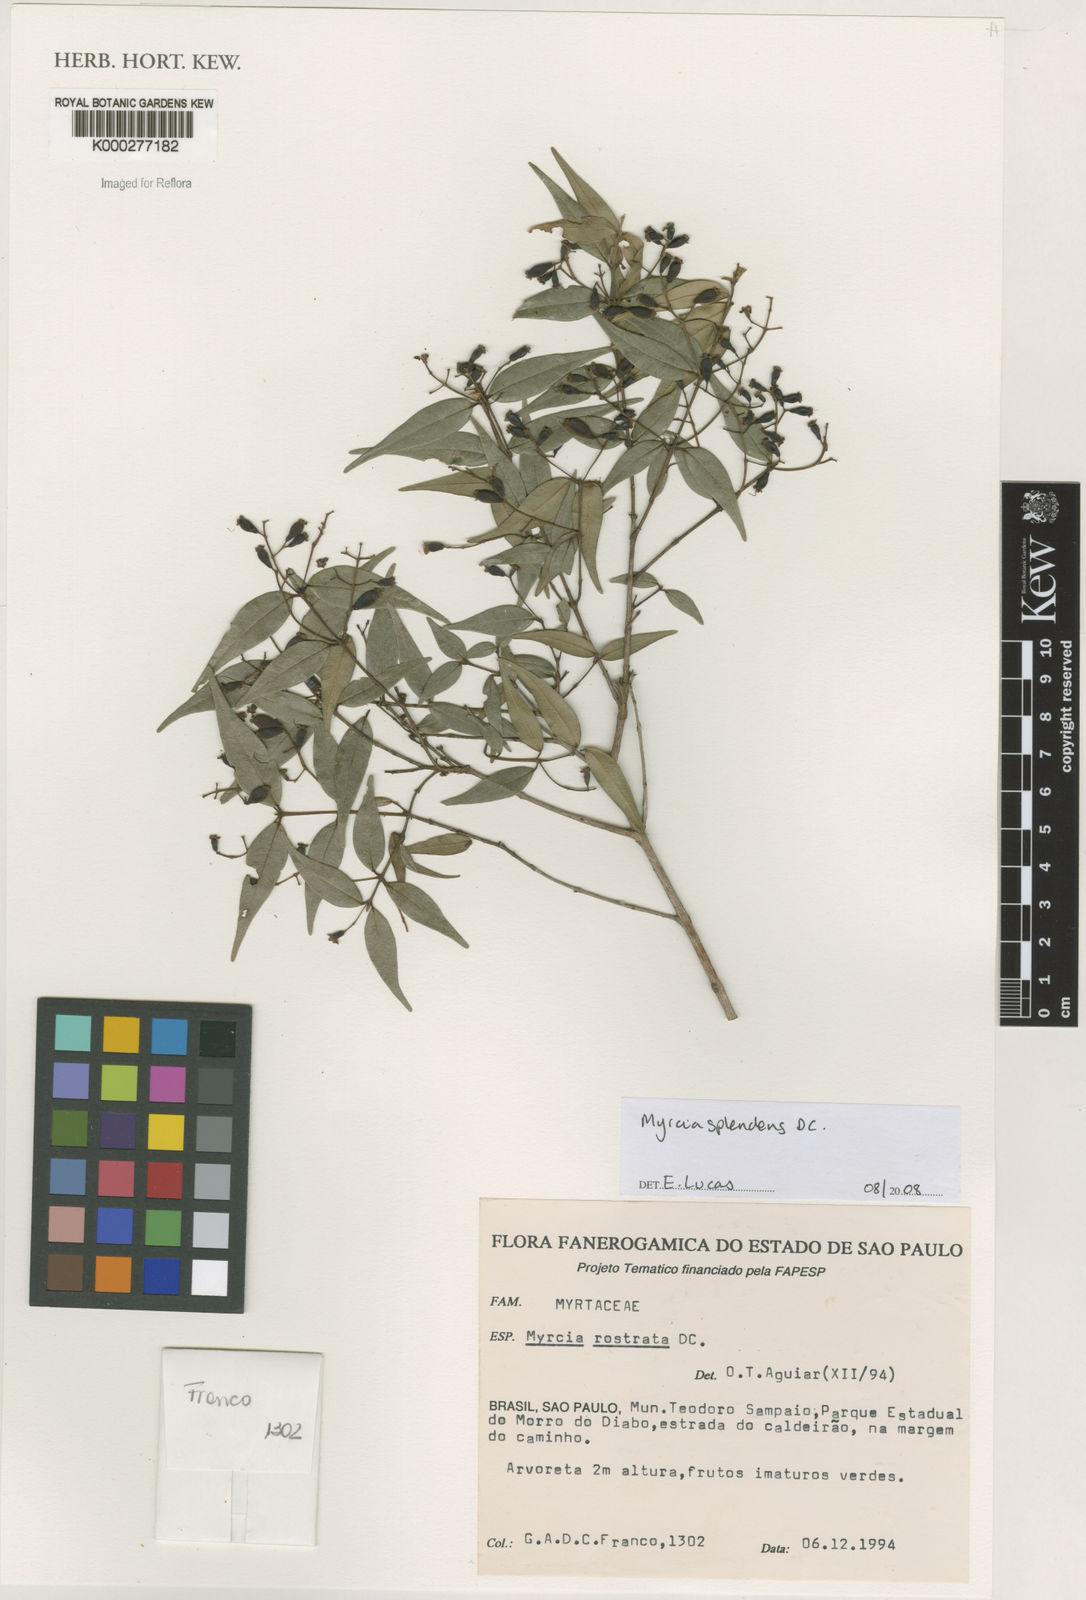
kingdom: Plantae
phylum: Tracheophyta
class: Magnoliopsida
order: Myrtales
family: Myrtaceae
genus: Myrcia
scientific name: Myrcia splendens
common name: Surinam cherry
